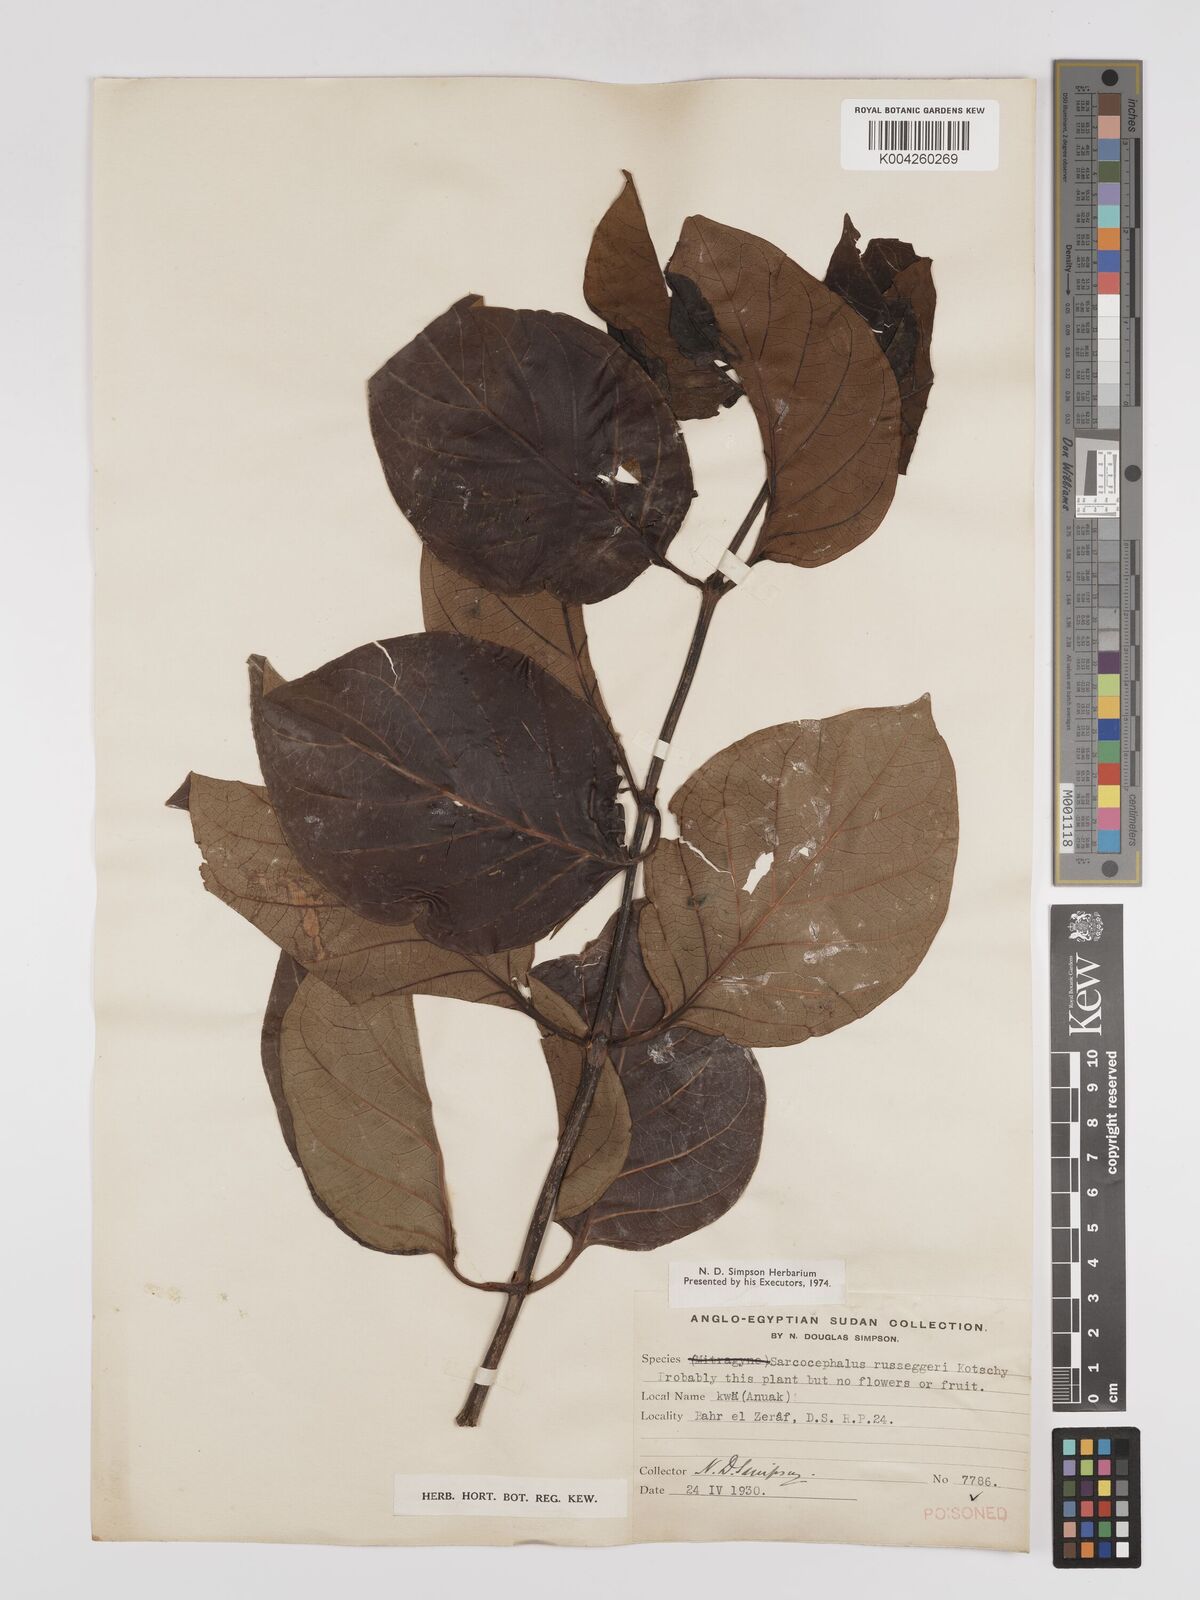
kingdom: Plantae
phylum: Tracheophyta
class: Magnoliopsida
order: Gentianales
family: Rubiaceae
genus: Nauclea
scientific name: Nauclea
